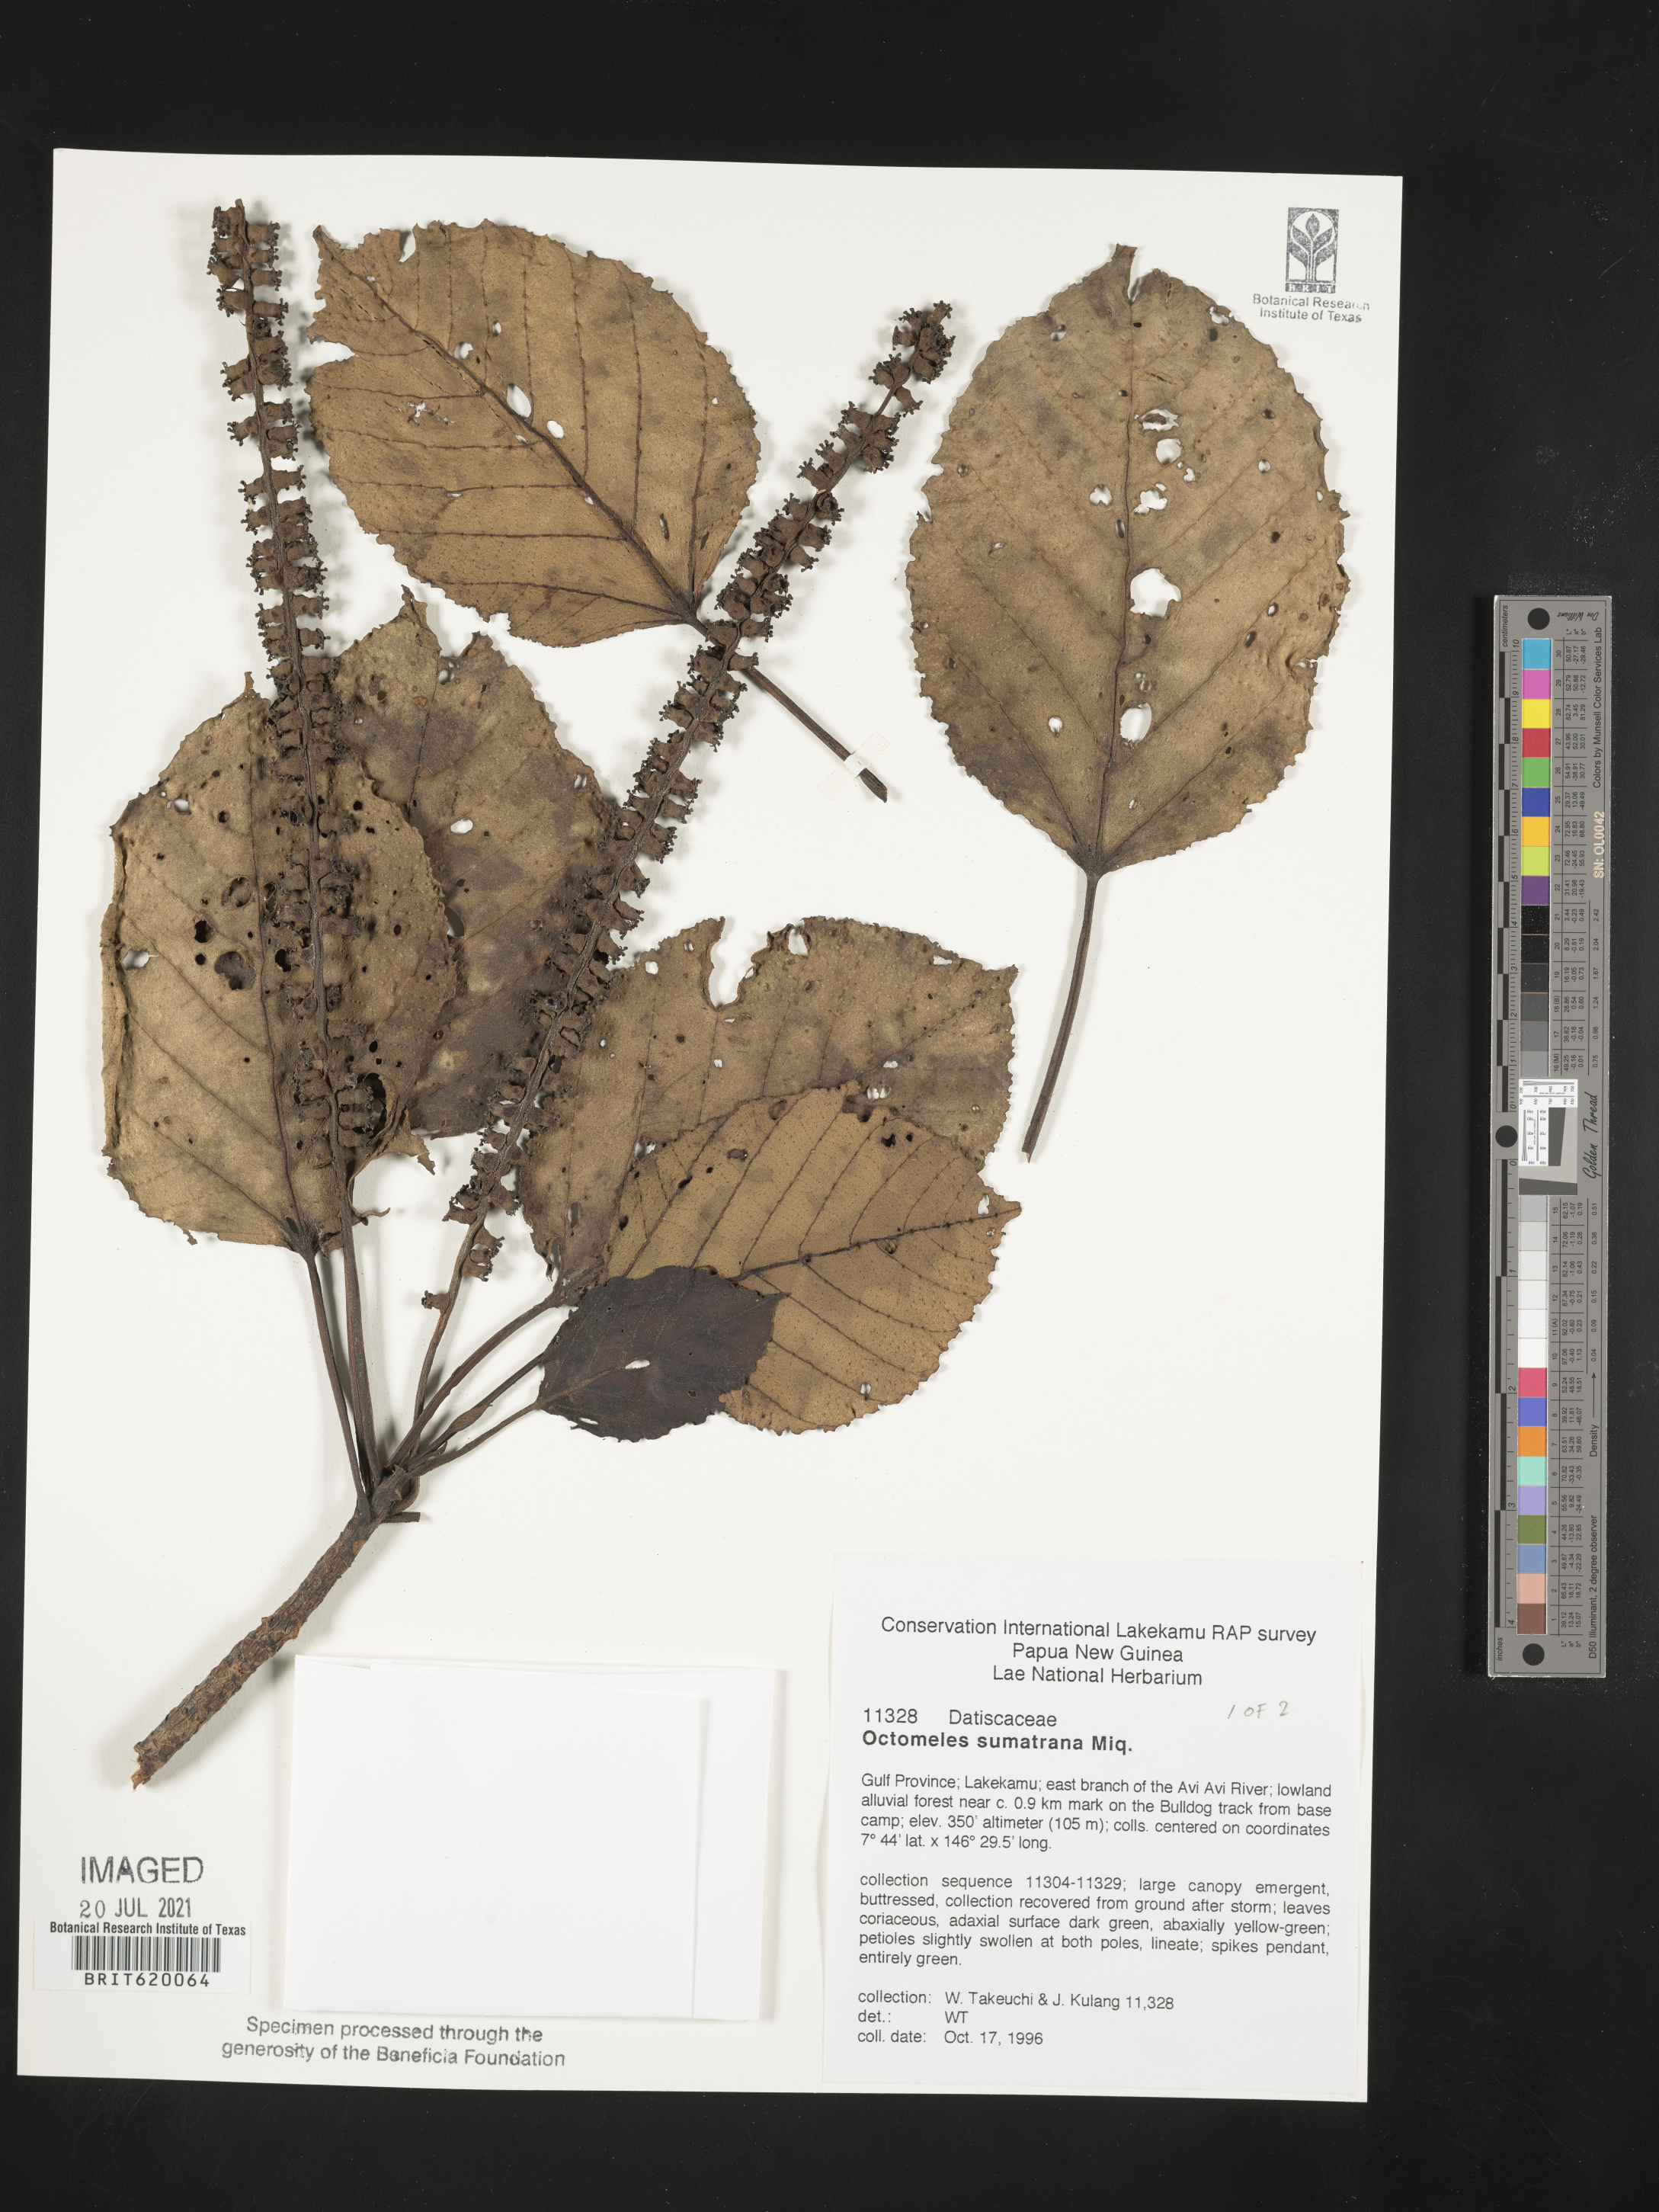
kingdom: Plantae
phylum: Tracheophyta
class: Magnoliopsida
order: Ericales
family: Ericaceae
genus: Psammisia
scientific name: Psammisia idalima
